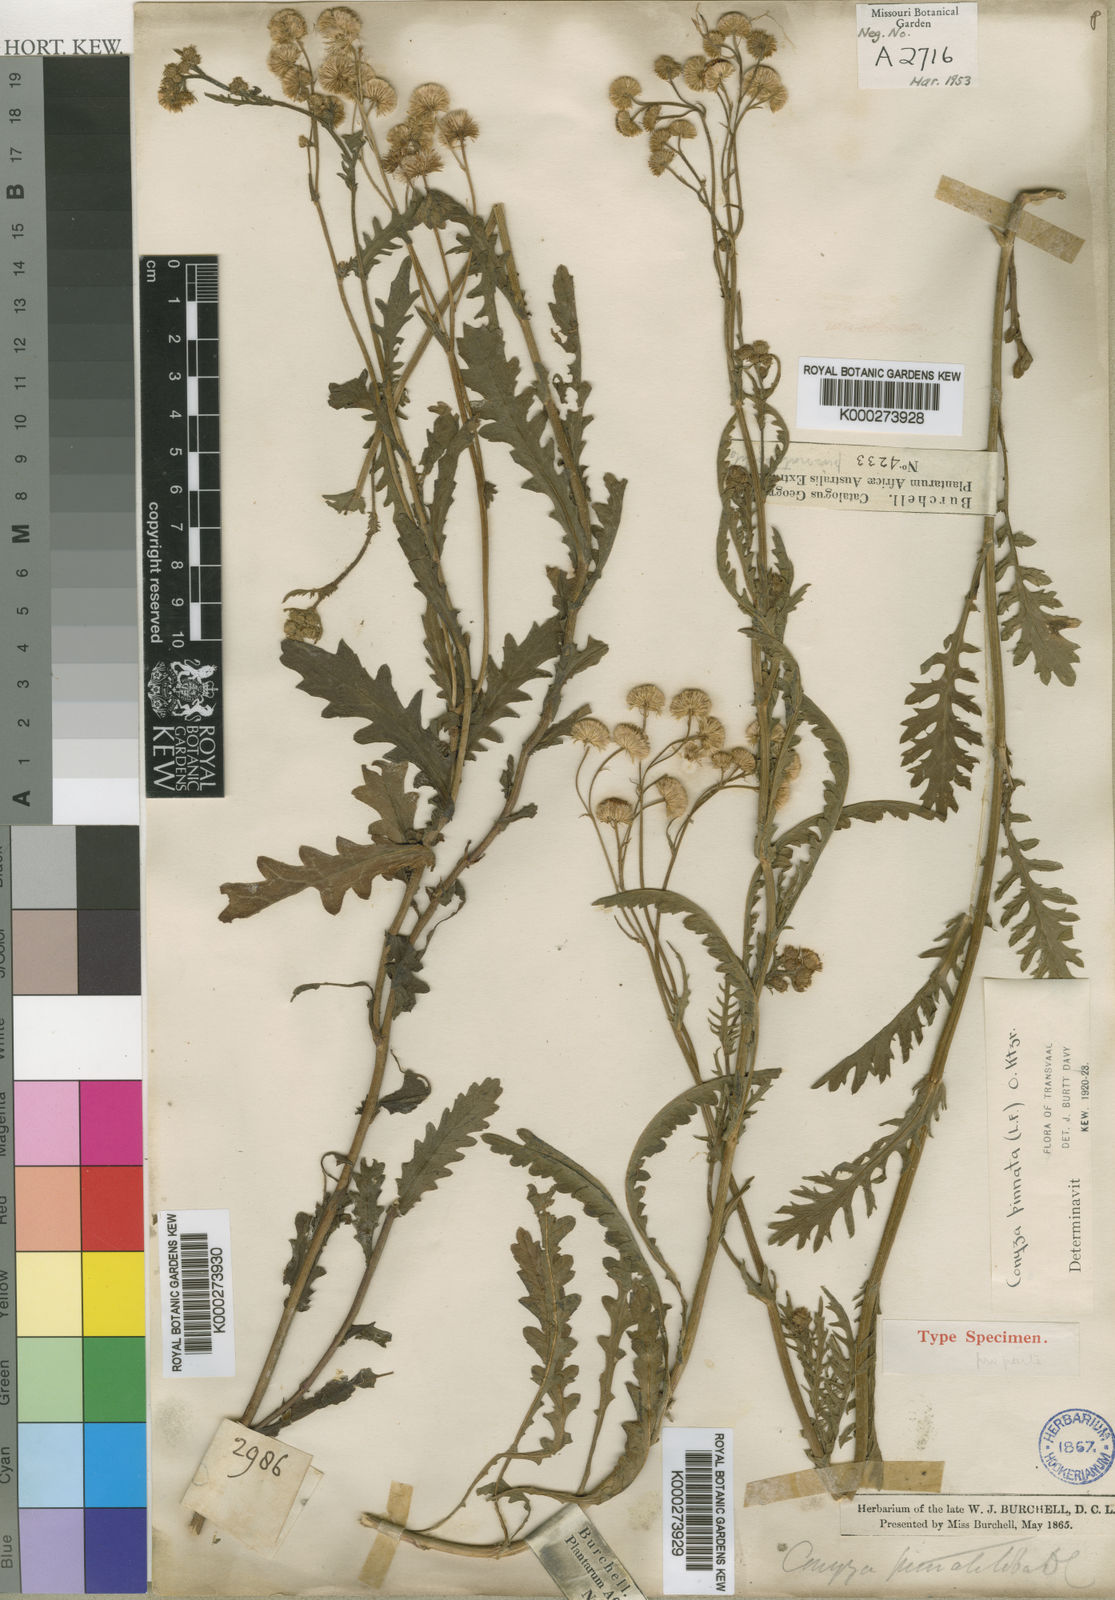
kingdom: Plantae
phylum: Tracheophyta
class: Magnoliopsida
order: Asterales
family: Asteraceae
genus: Nidorella
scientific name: Nidorella pinnata
